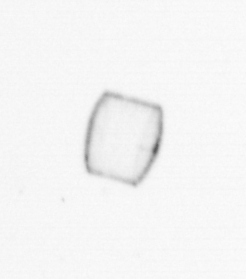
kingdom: Chromista
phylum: Ochrophyta
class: Bacillariophyceae
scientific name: Bacillariophyceae
